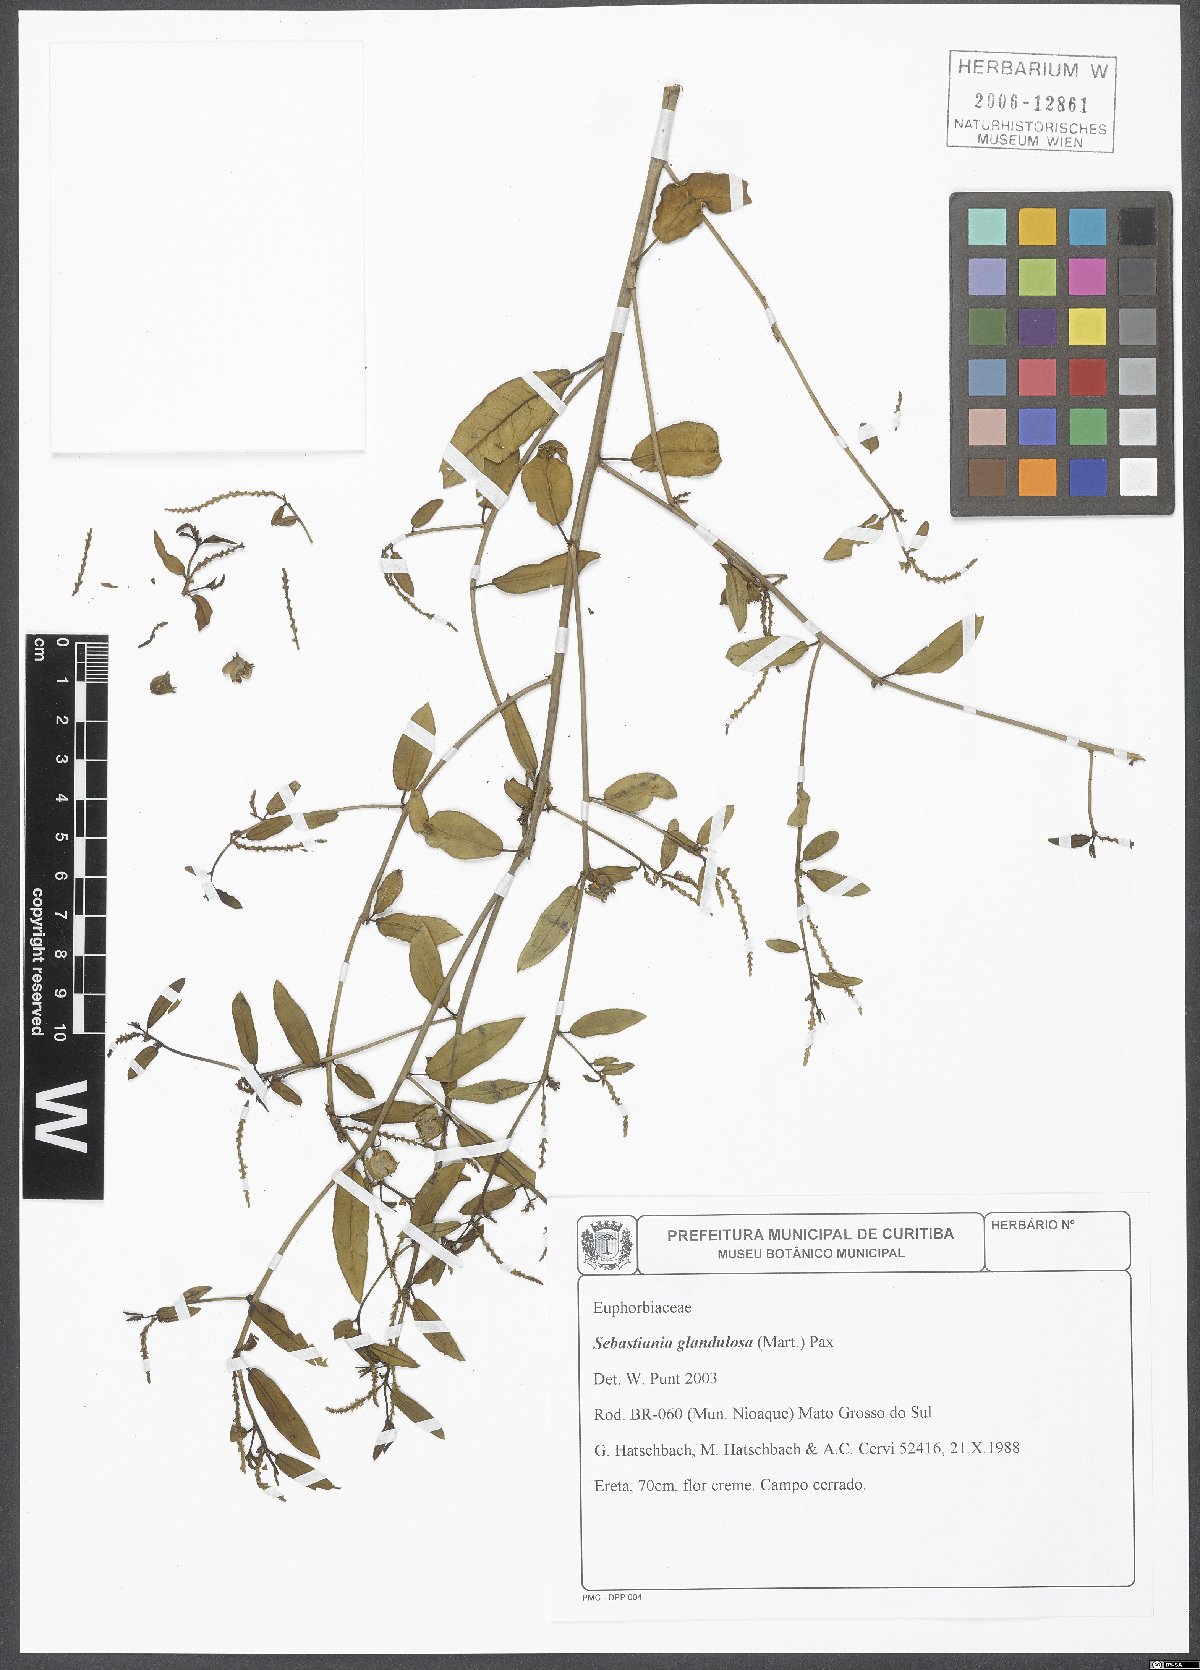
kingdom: Plantae
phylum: Tracheophyta
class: Magnoliopsida
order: Malpighiales
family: Euphorbiaceae
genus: Sebastiania
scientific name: Sebastiania glandulosa
